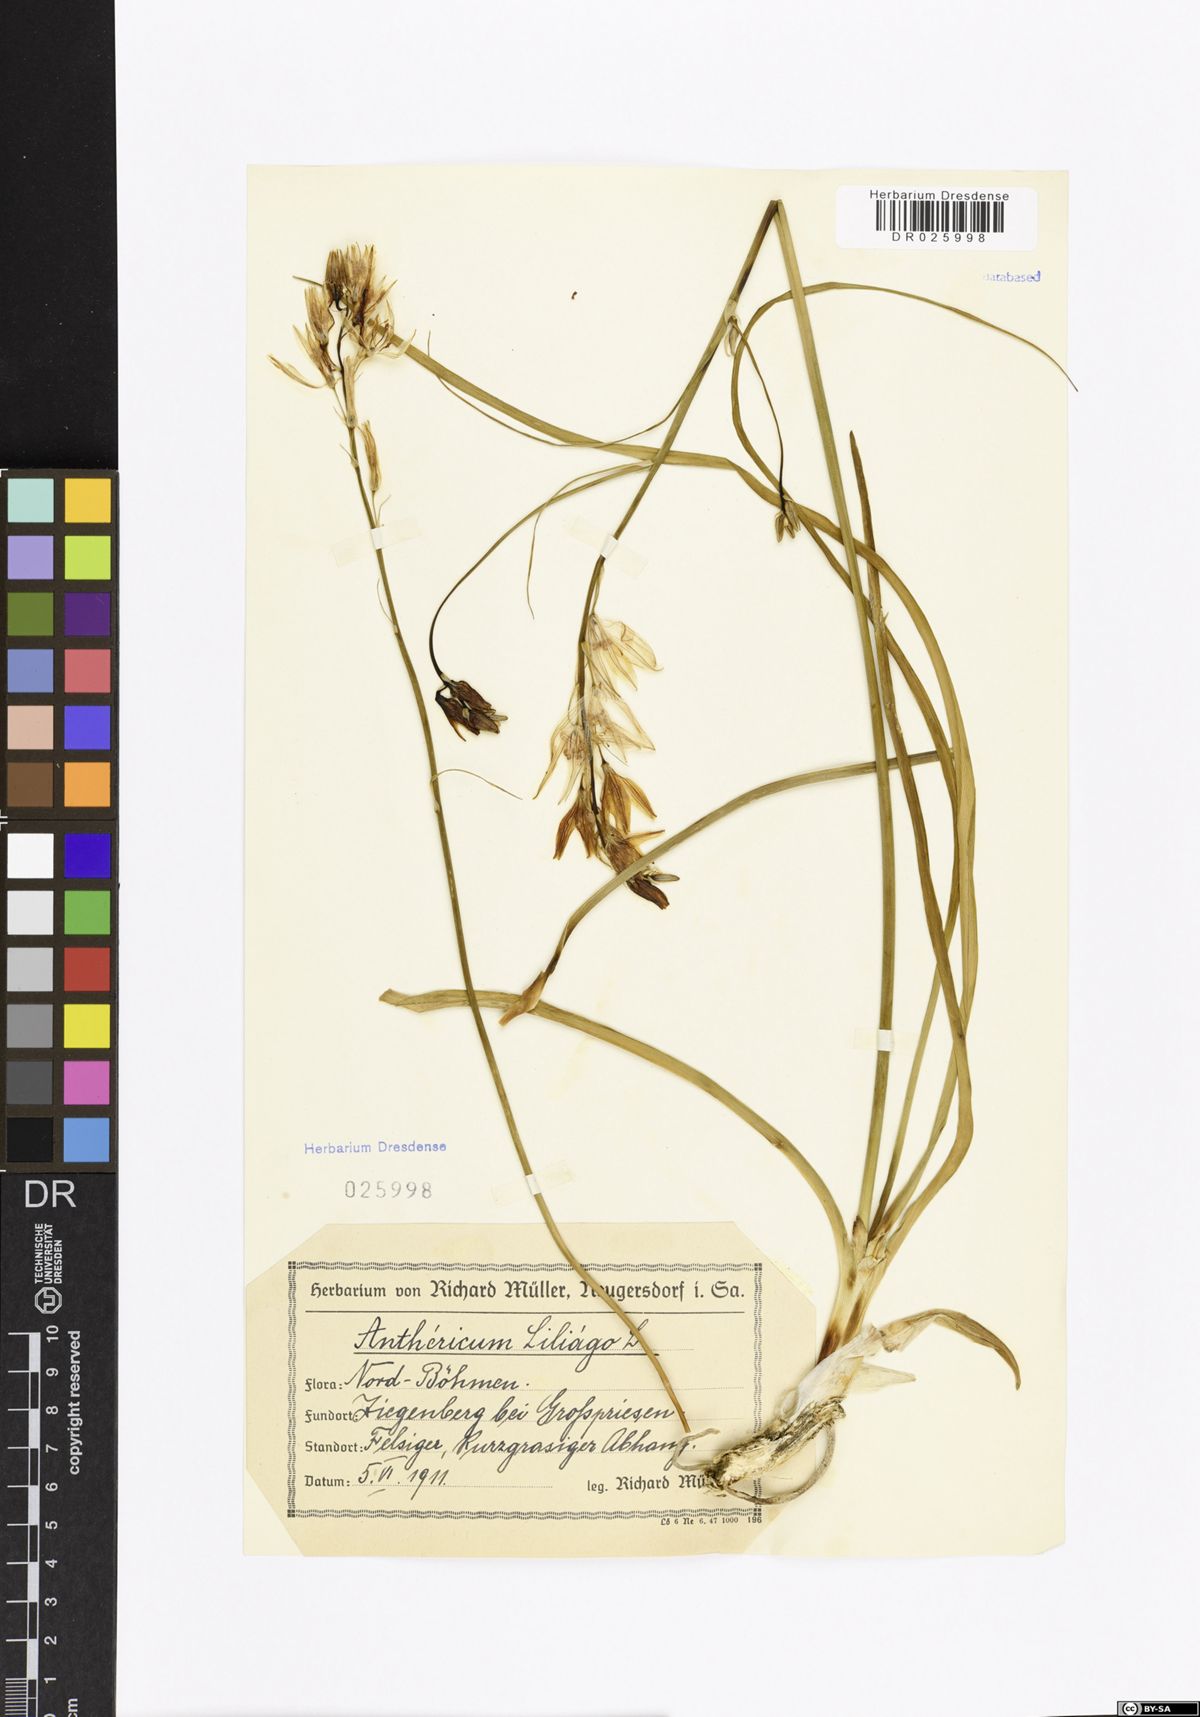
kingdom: Plantae
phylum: Tracheophyta
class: Liliopsida
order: Asparagales
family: Asparagaceae
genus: Anthericum
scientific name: Anthericum liliago
